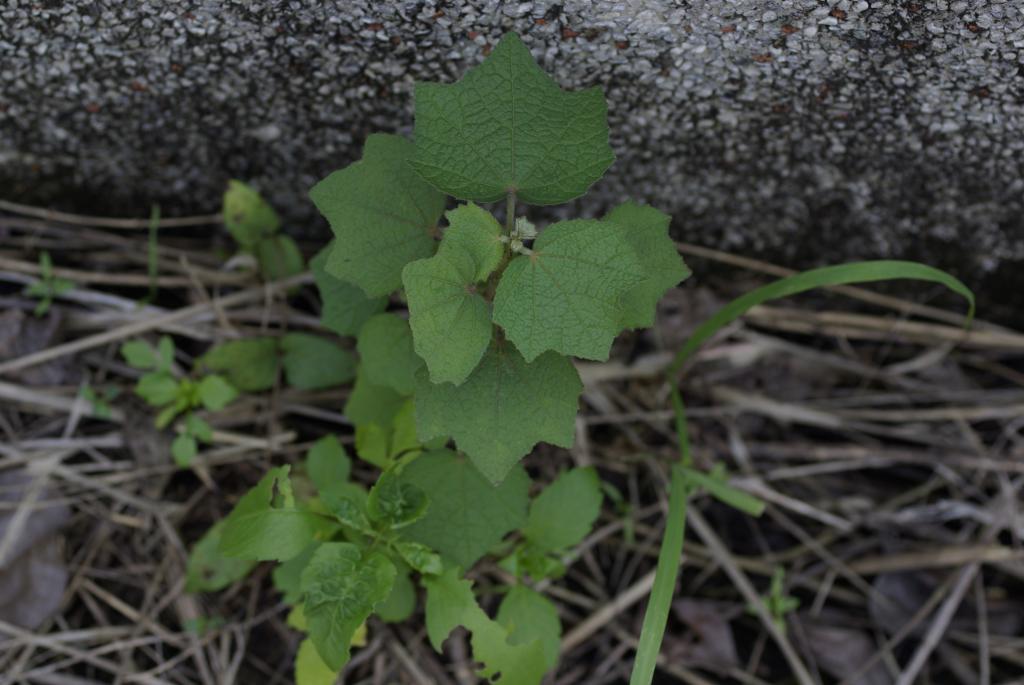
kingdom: Plantae
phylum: Tracheophyta
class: Magnoliopsida
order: Malvales
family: Malvaceae
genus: Urena
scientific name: Urena lobata
